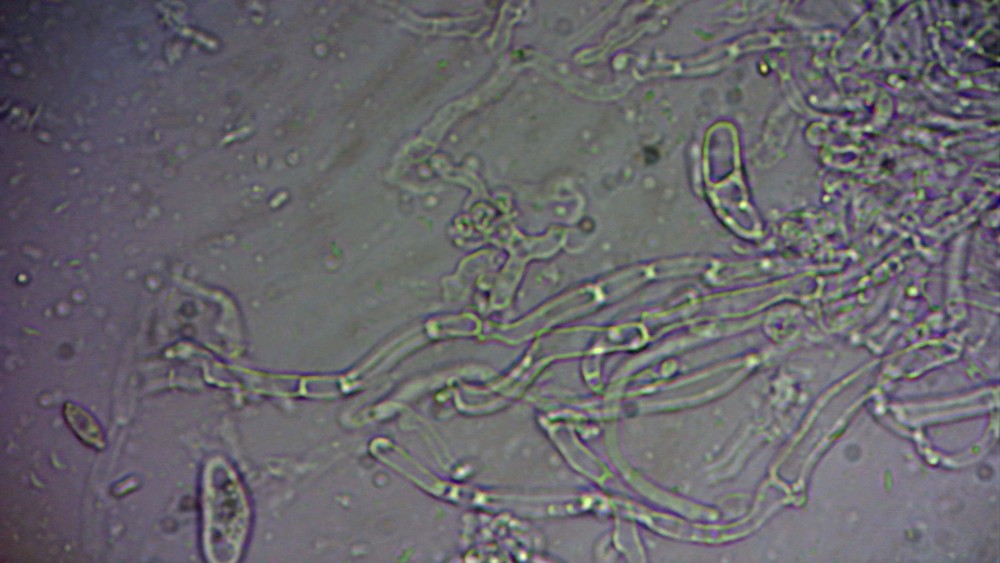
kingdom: Fungi
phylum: Basidiomycota
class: Agaricomycetes
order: Agaricales
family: Pleurotaceae
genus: Resupinatus
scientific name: Resupinatus poriaeformis
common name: tæpperør
